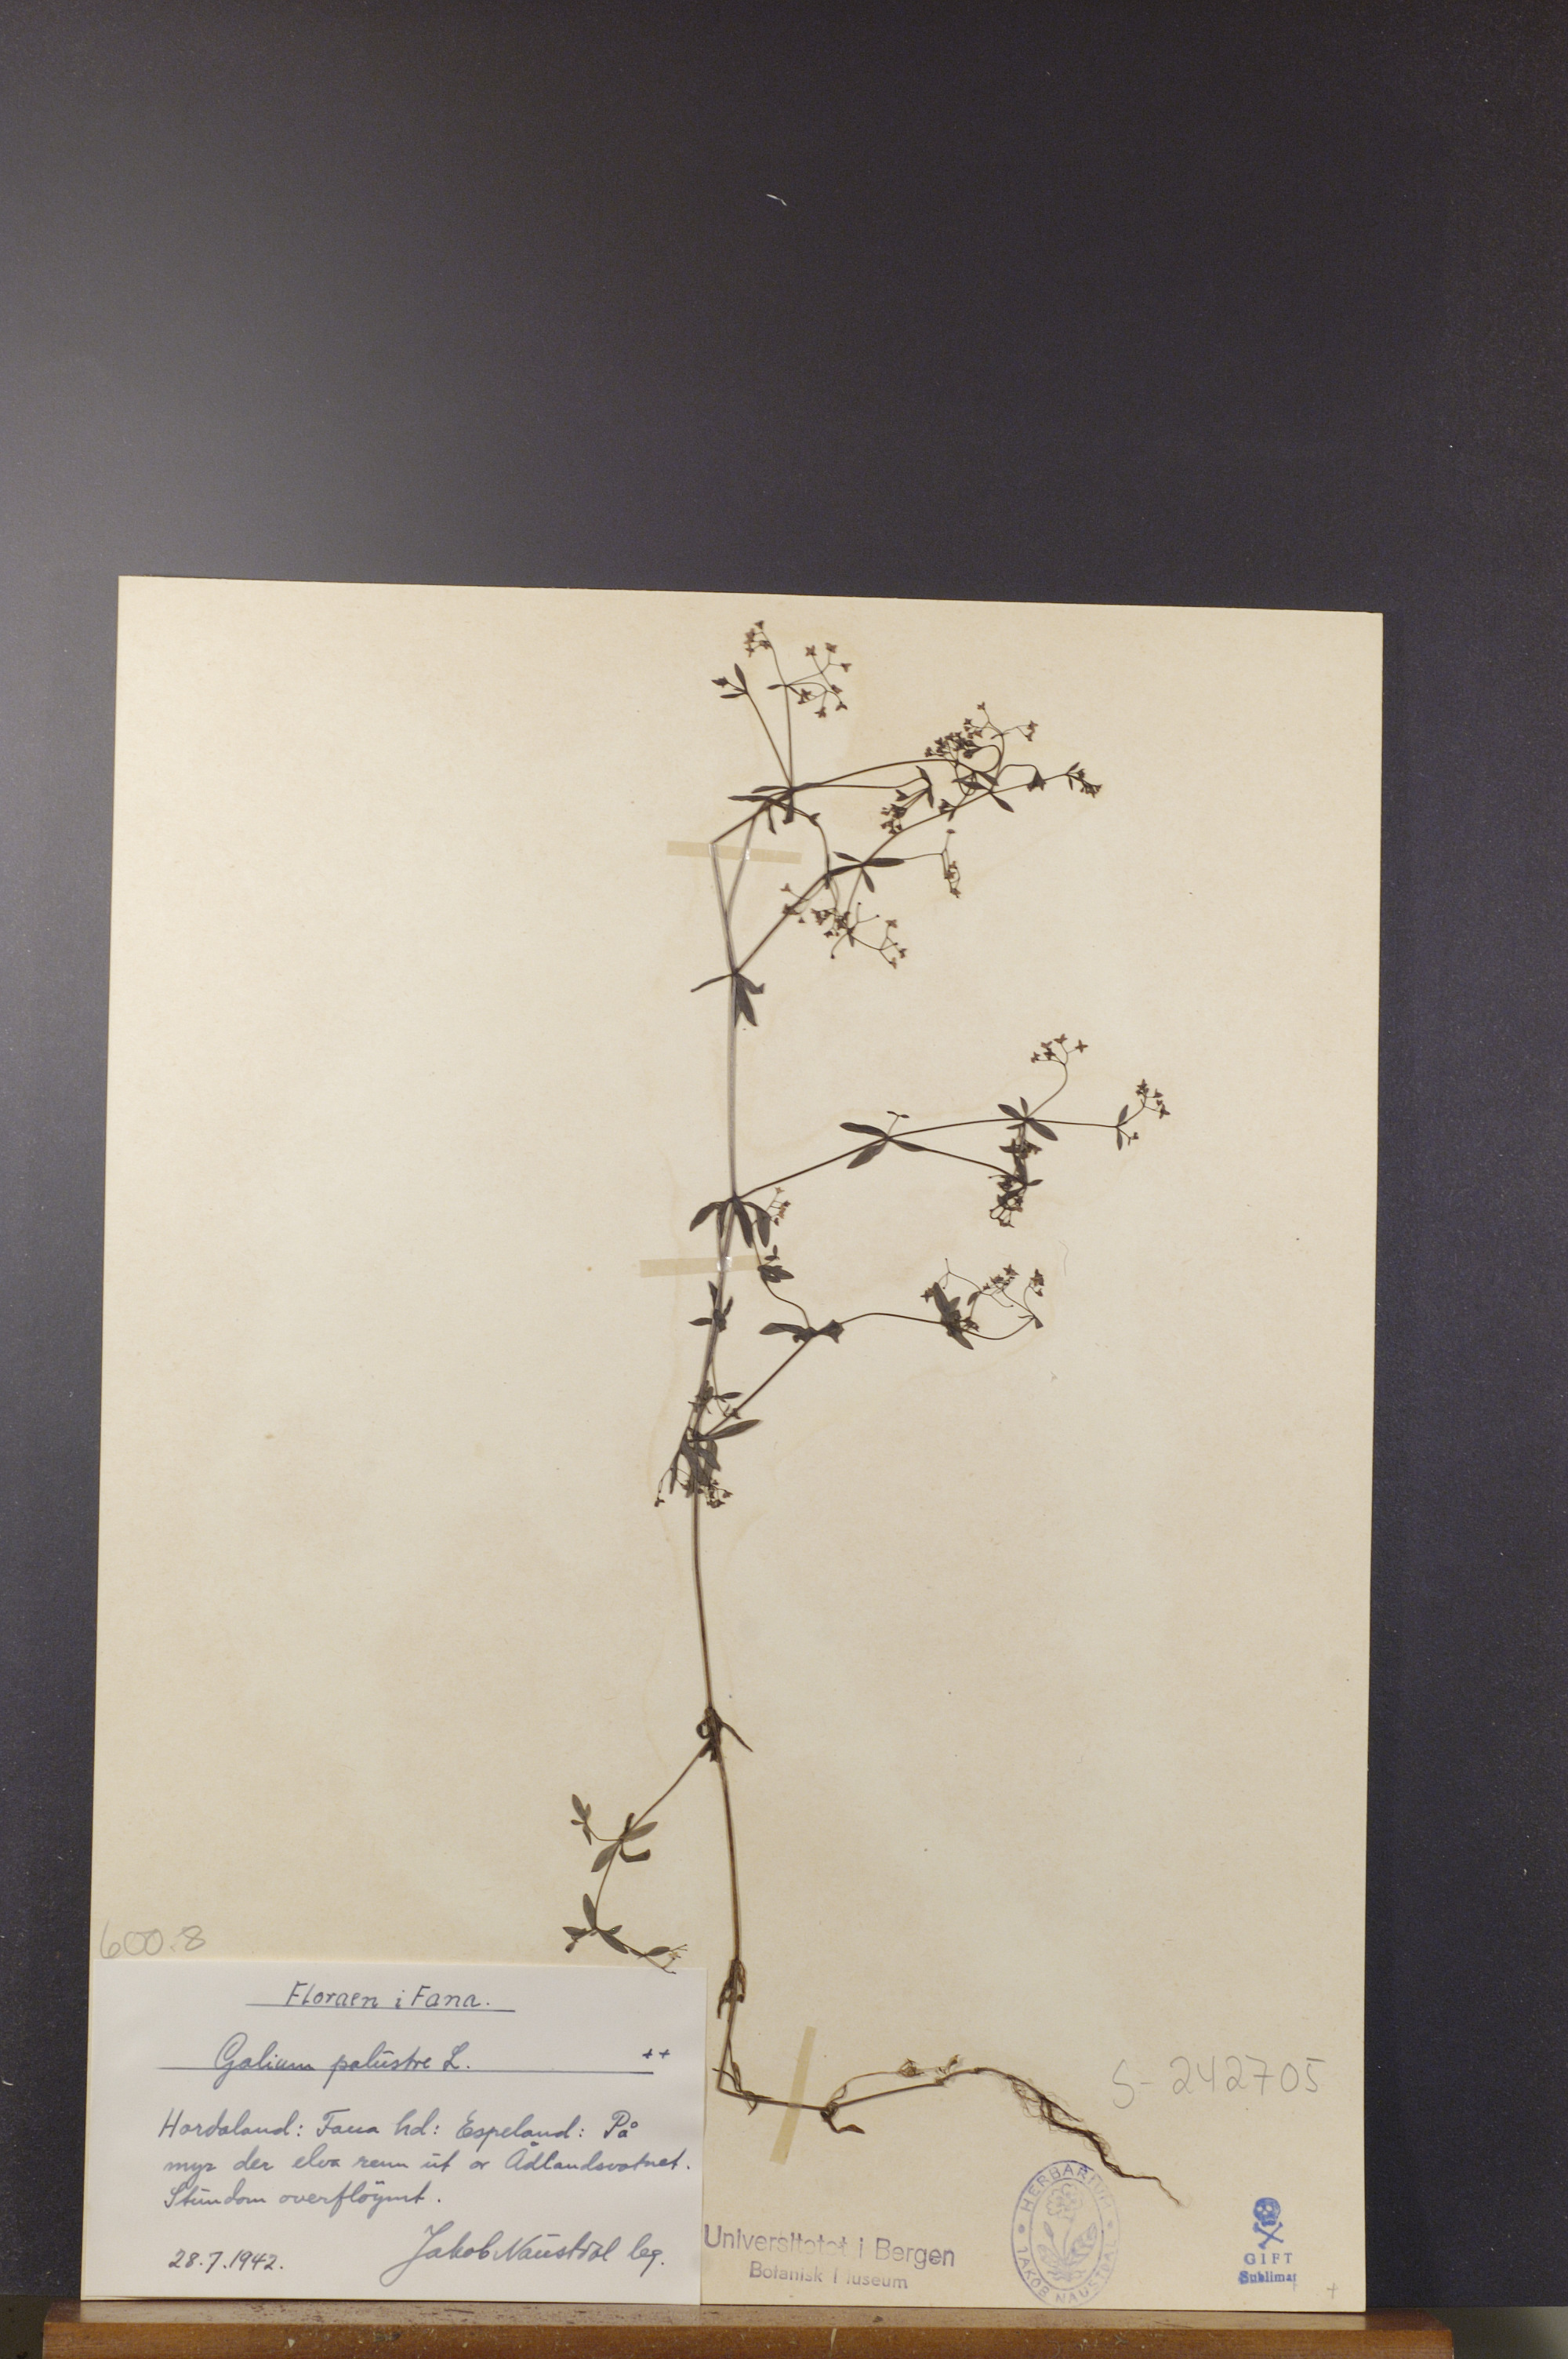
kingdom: Plantae
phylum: Tracheophyta
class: Magnoliopsida
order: Gentianales
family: Rubiaceae
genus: Galium
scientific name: Galium palustre
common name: Common marsh-bedstraw
